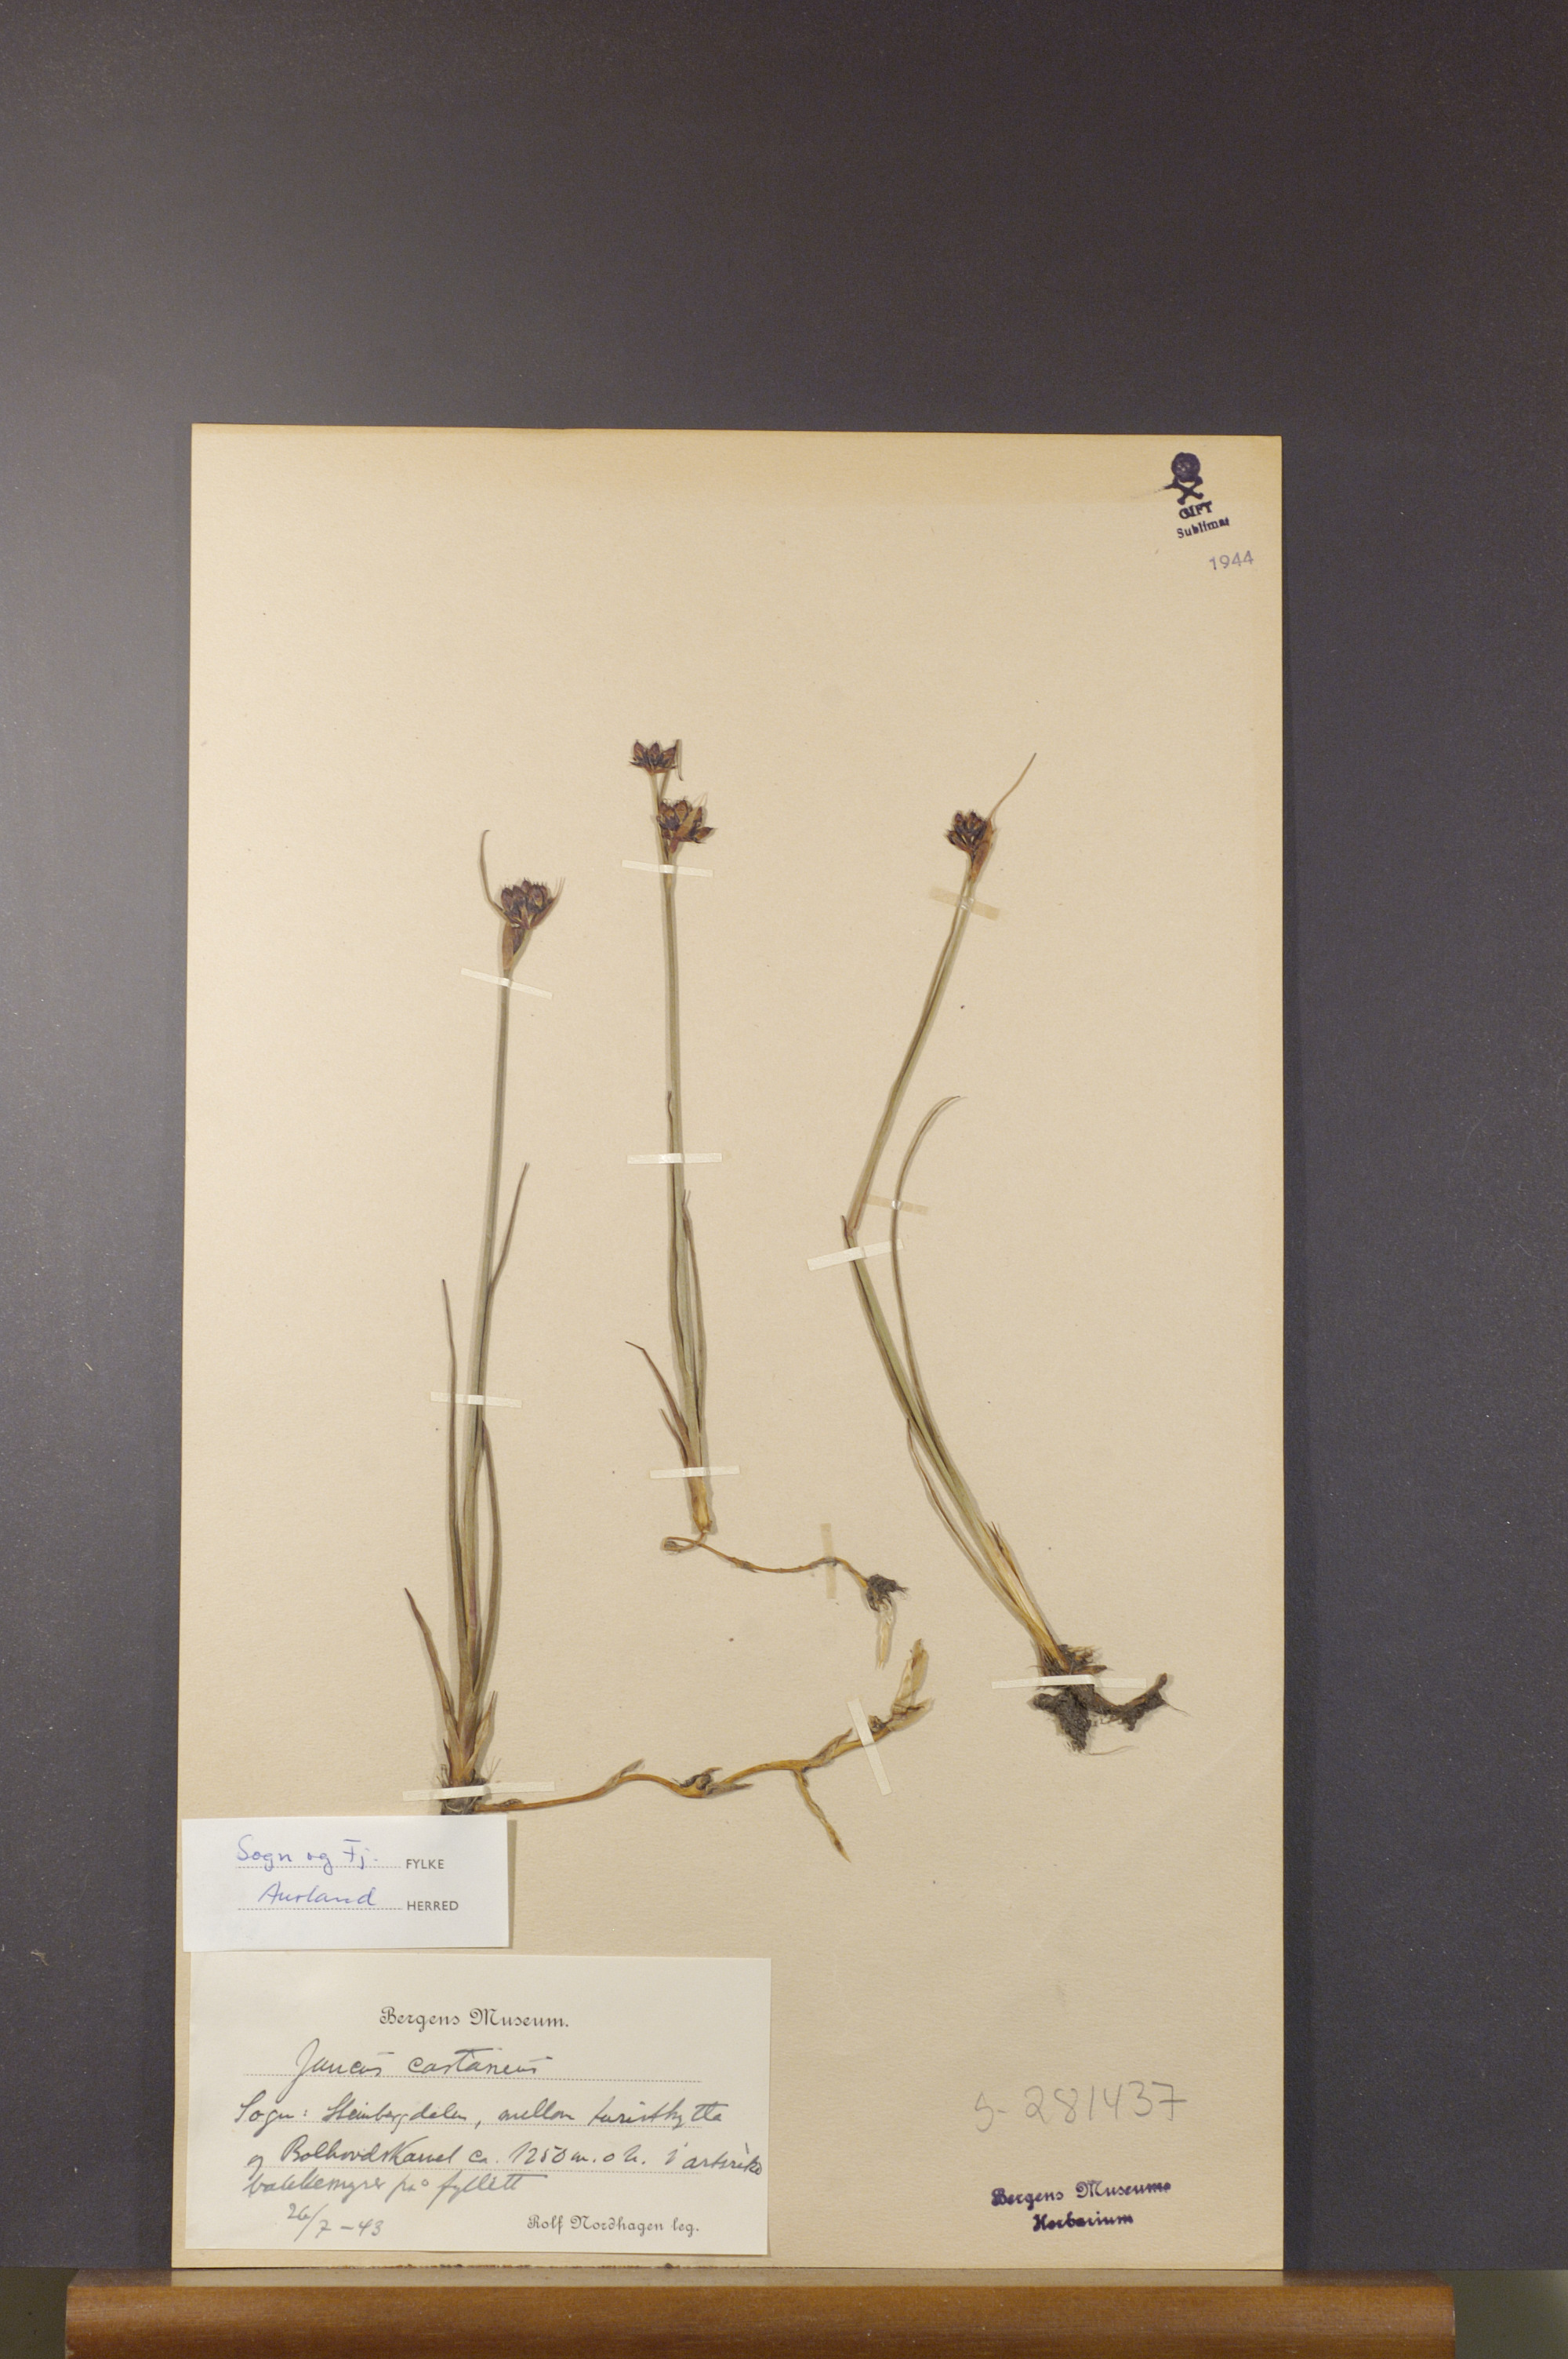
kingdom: Plantae
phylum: Tracheophyta
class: Liliopsida
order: Poales
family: Juncaceae
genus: Juncus
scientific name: Juncus castaneus
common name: Chestnut rush
